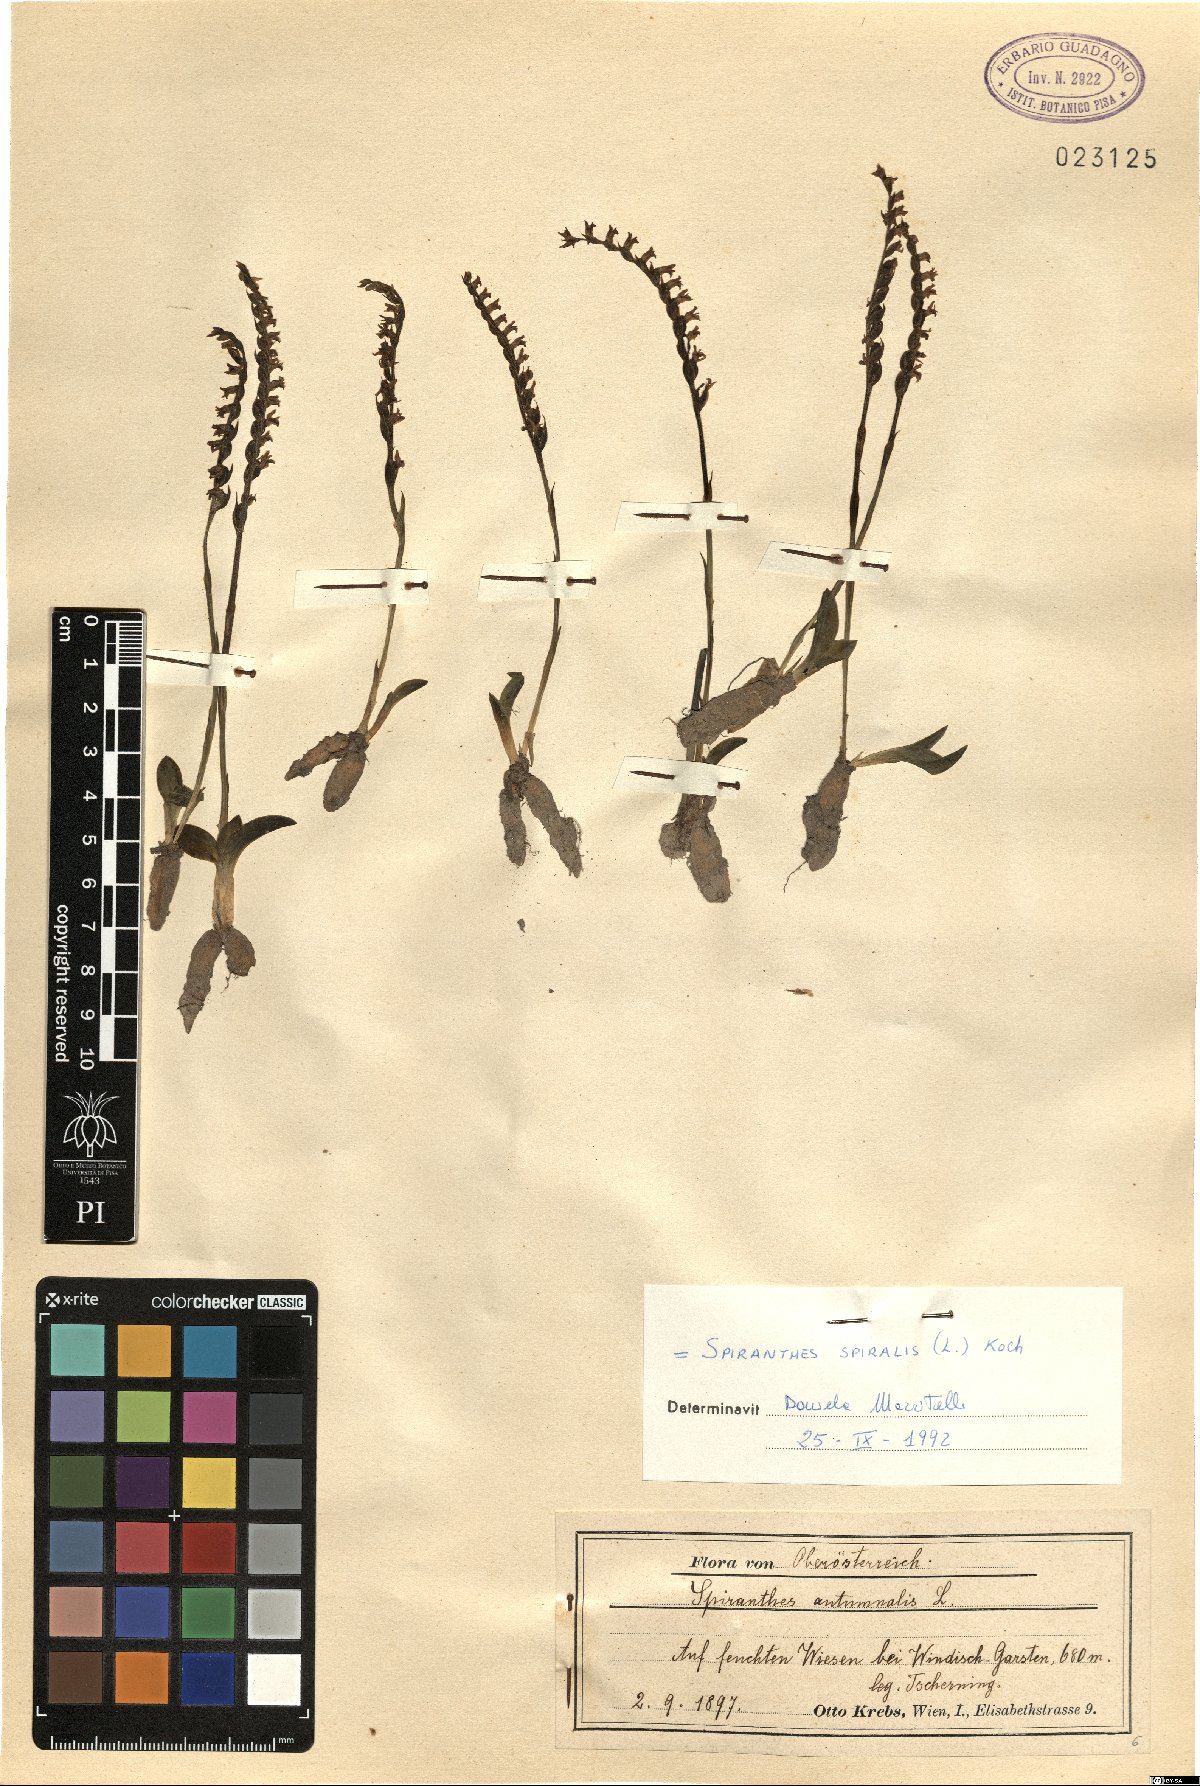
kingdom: Plantae
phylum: Tracheophyta
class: Liliopsida
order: Asparagales
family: Orchidaceae
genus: Spiranthes
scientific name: Spiranthes spiralis
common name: Autumn lady's-tresses
